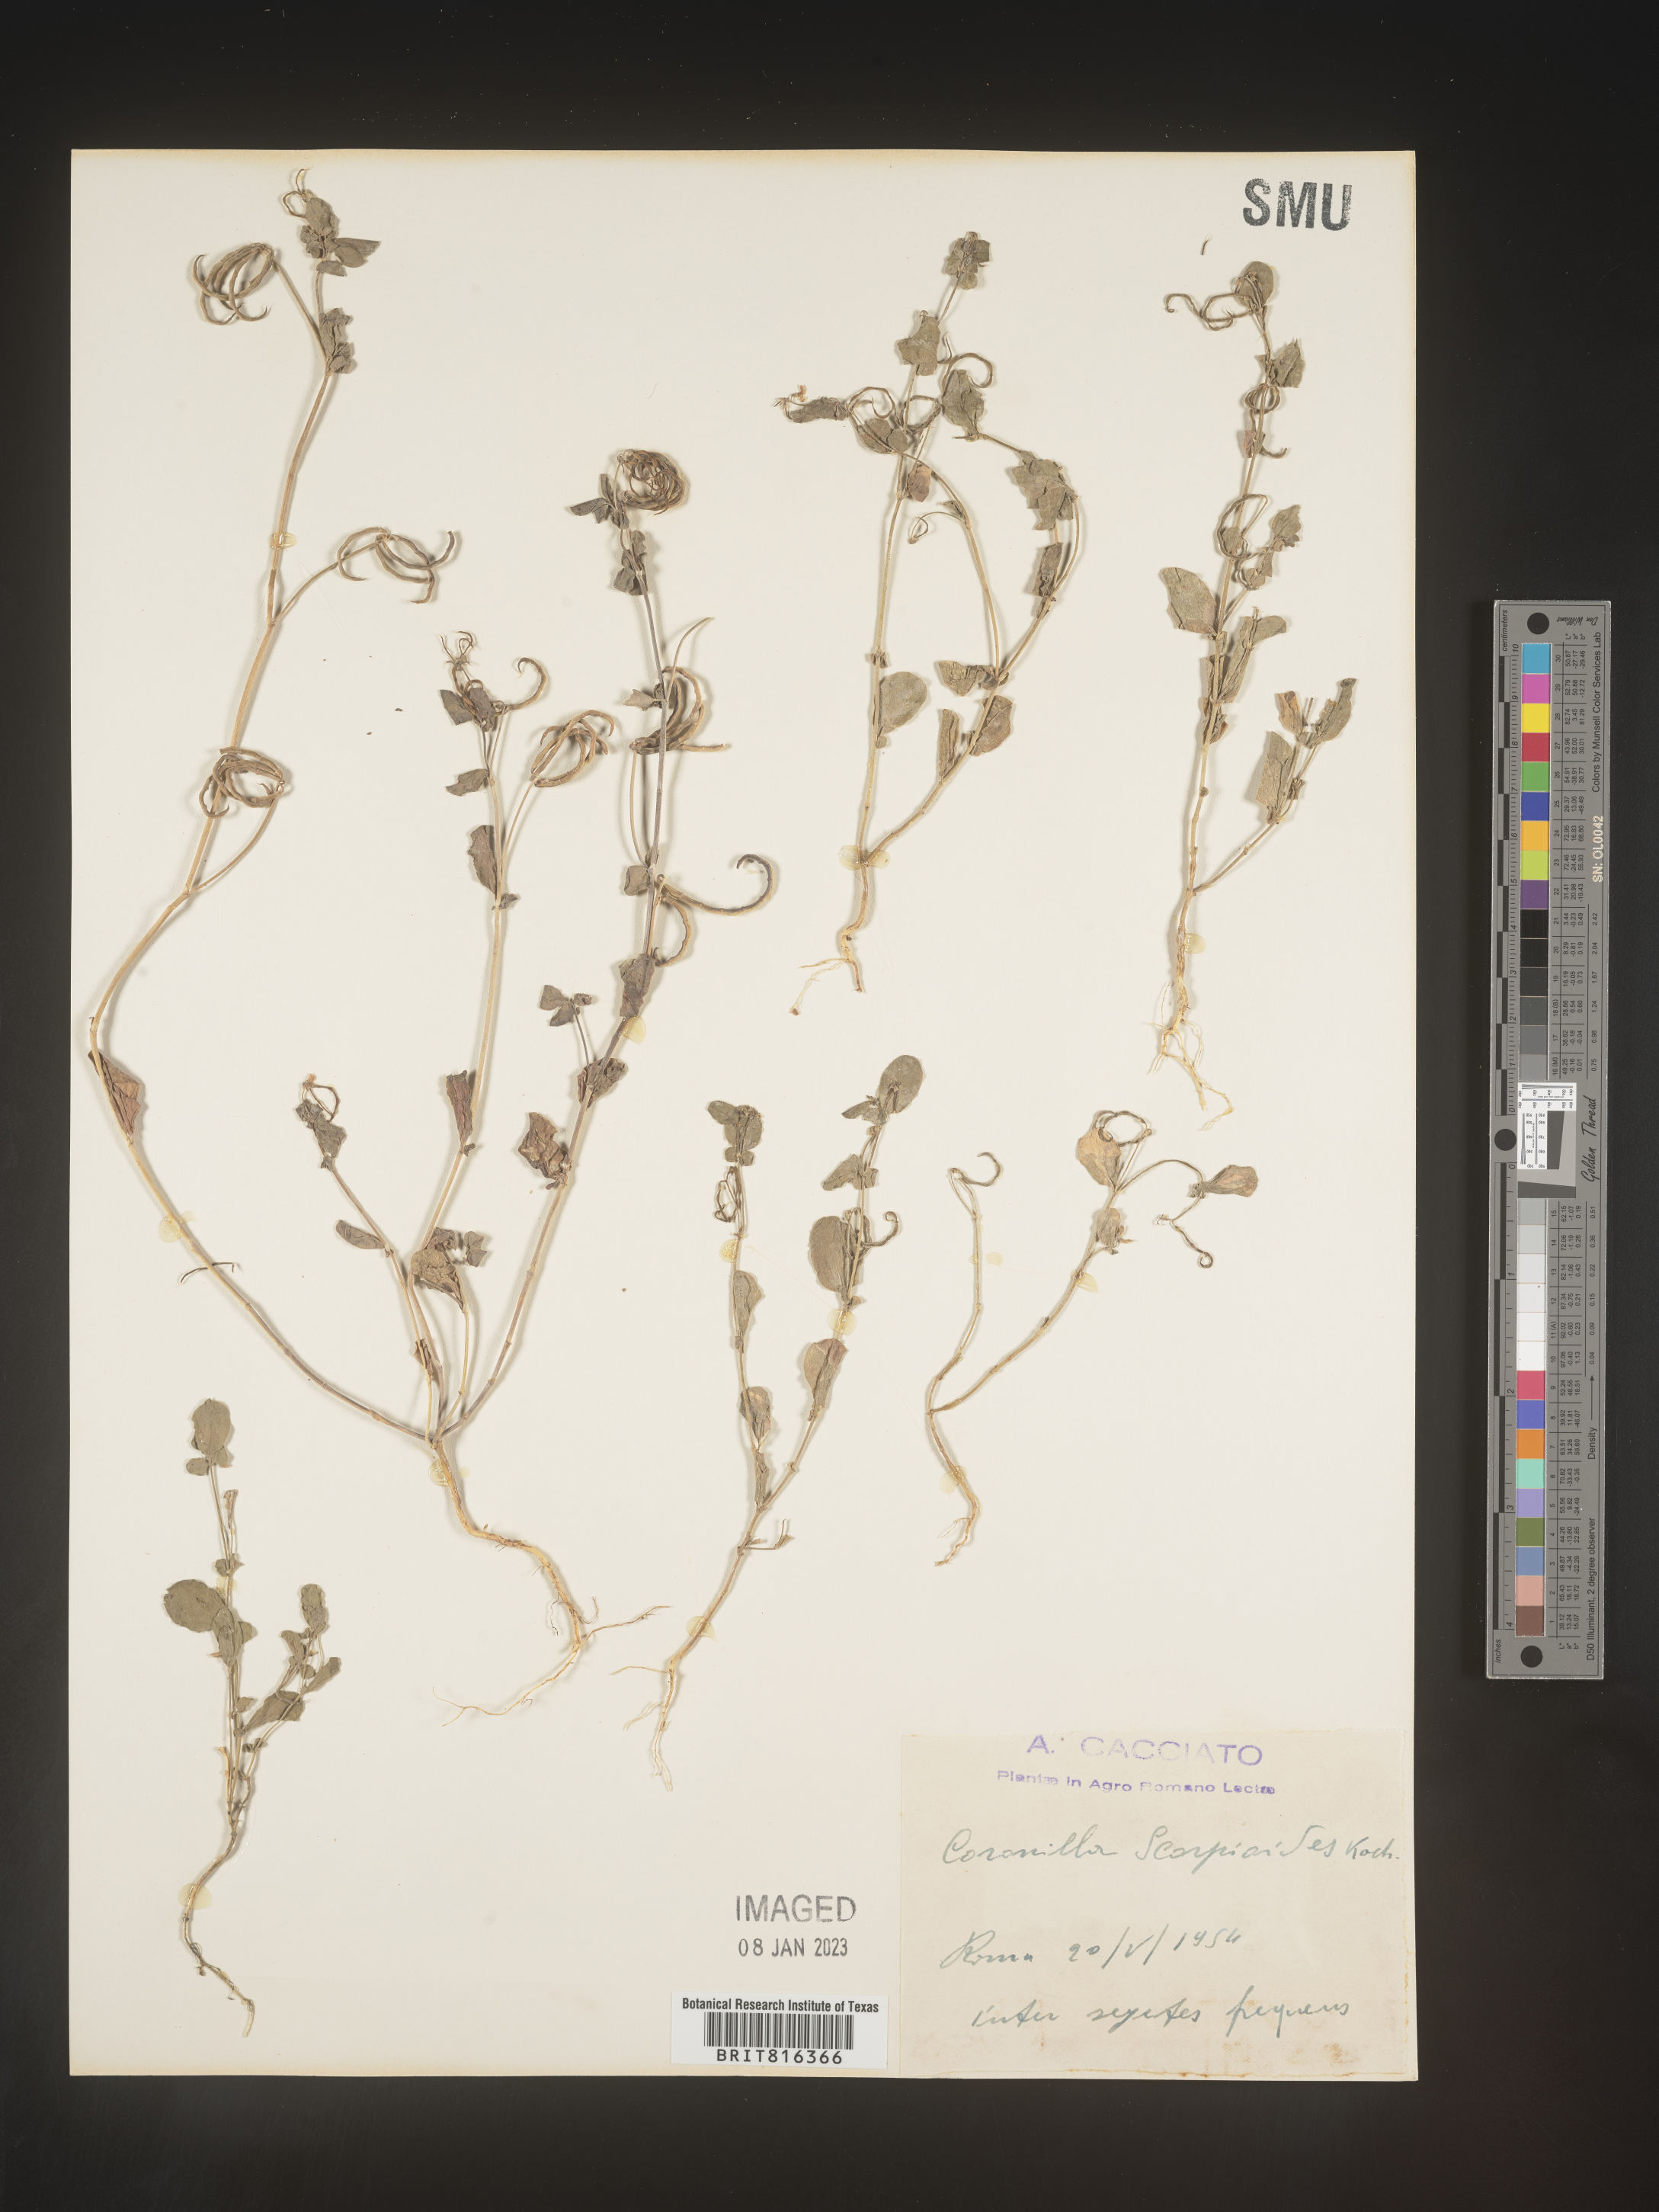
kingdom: Plantae
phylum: Tracheophyta
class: Magnoliopsida
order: Fabales
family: Fabaceae
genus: Coronilla
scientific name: Coronilla
